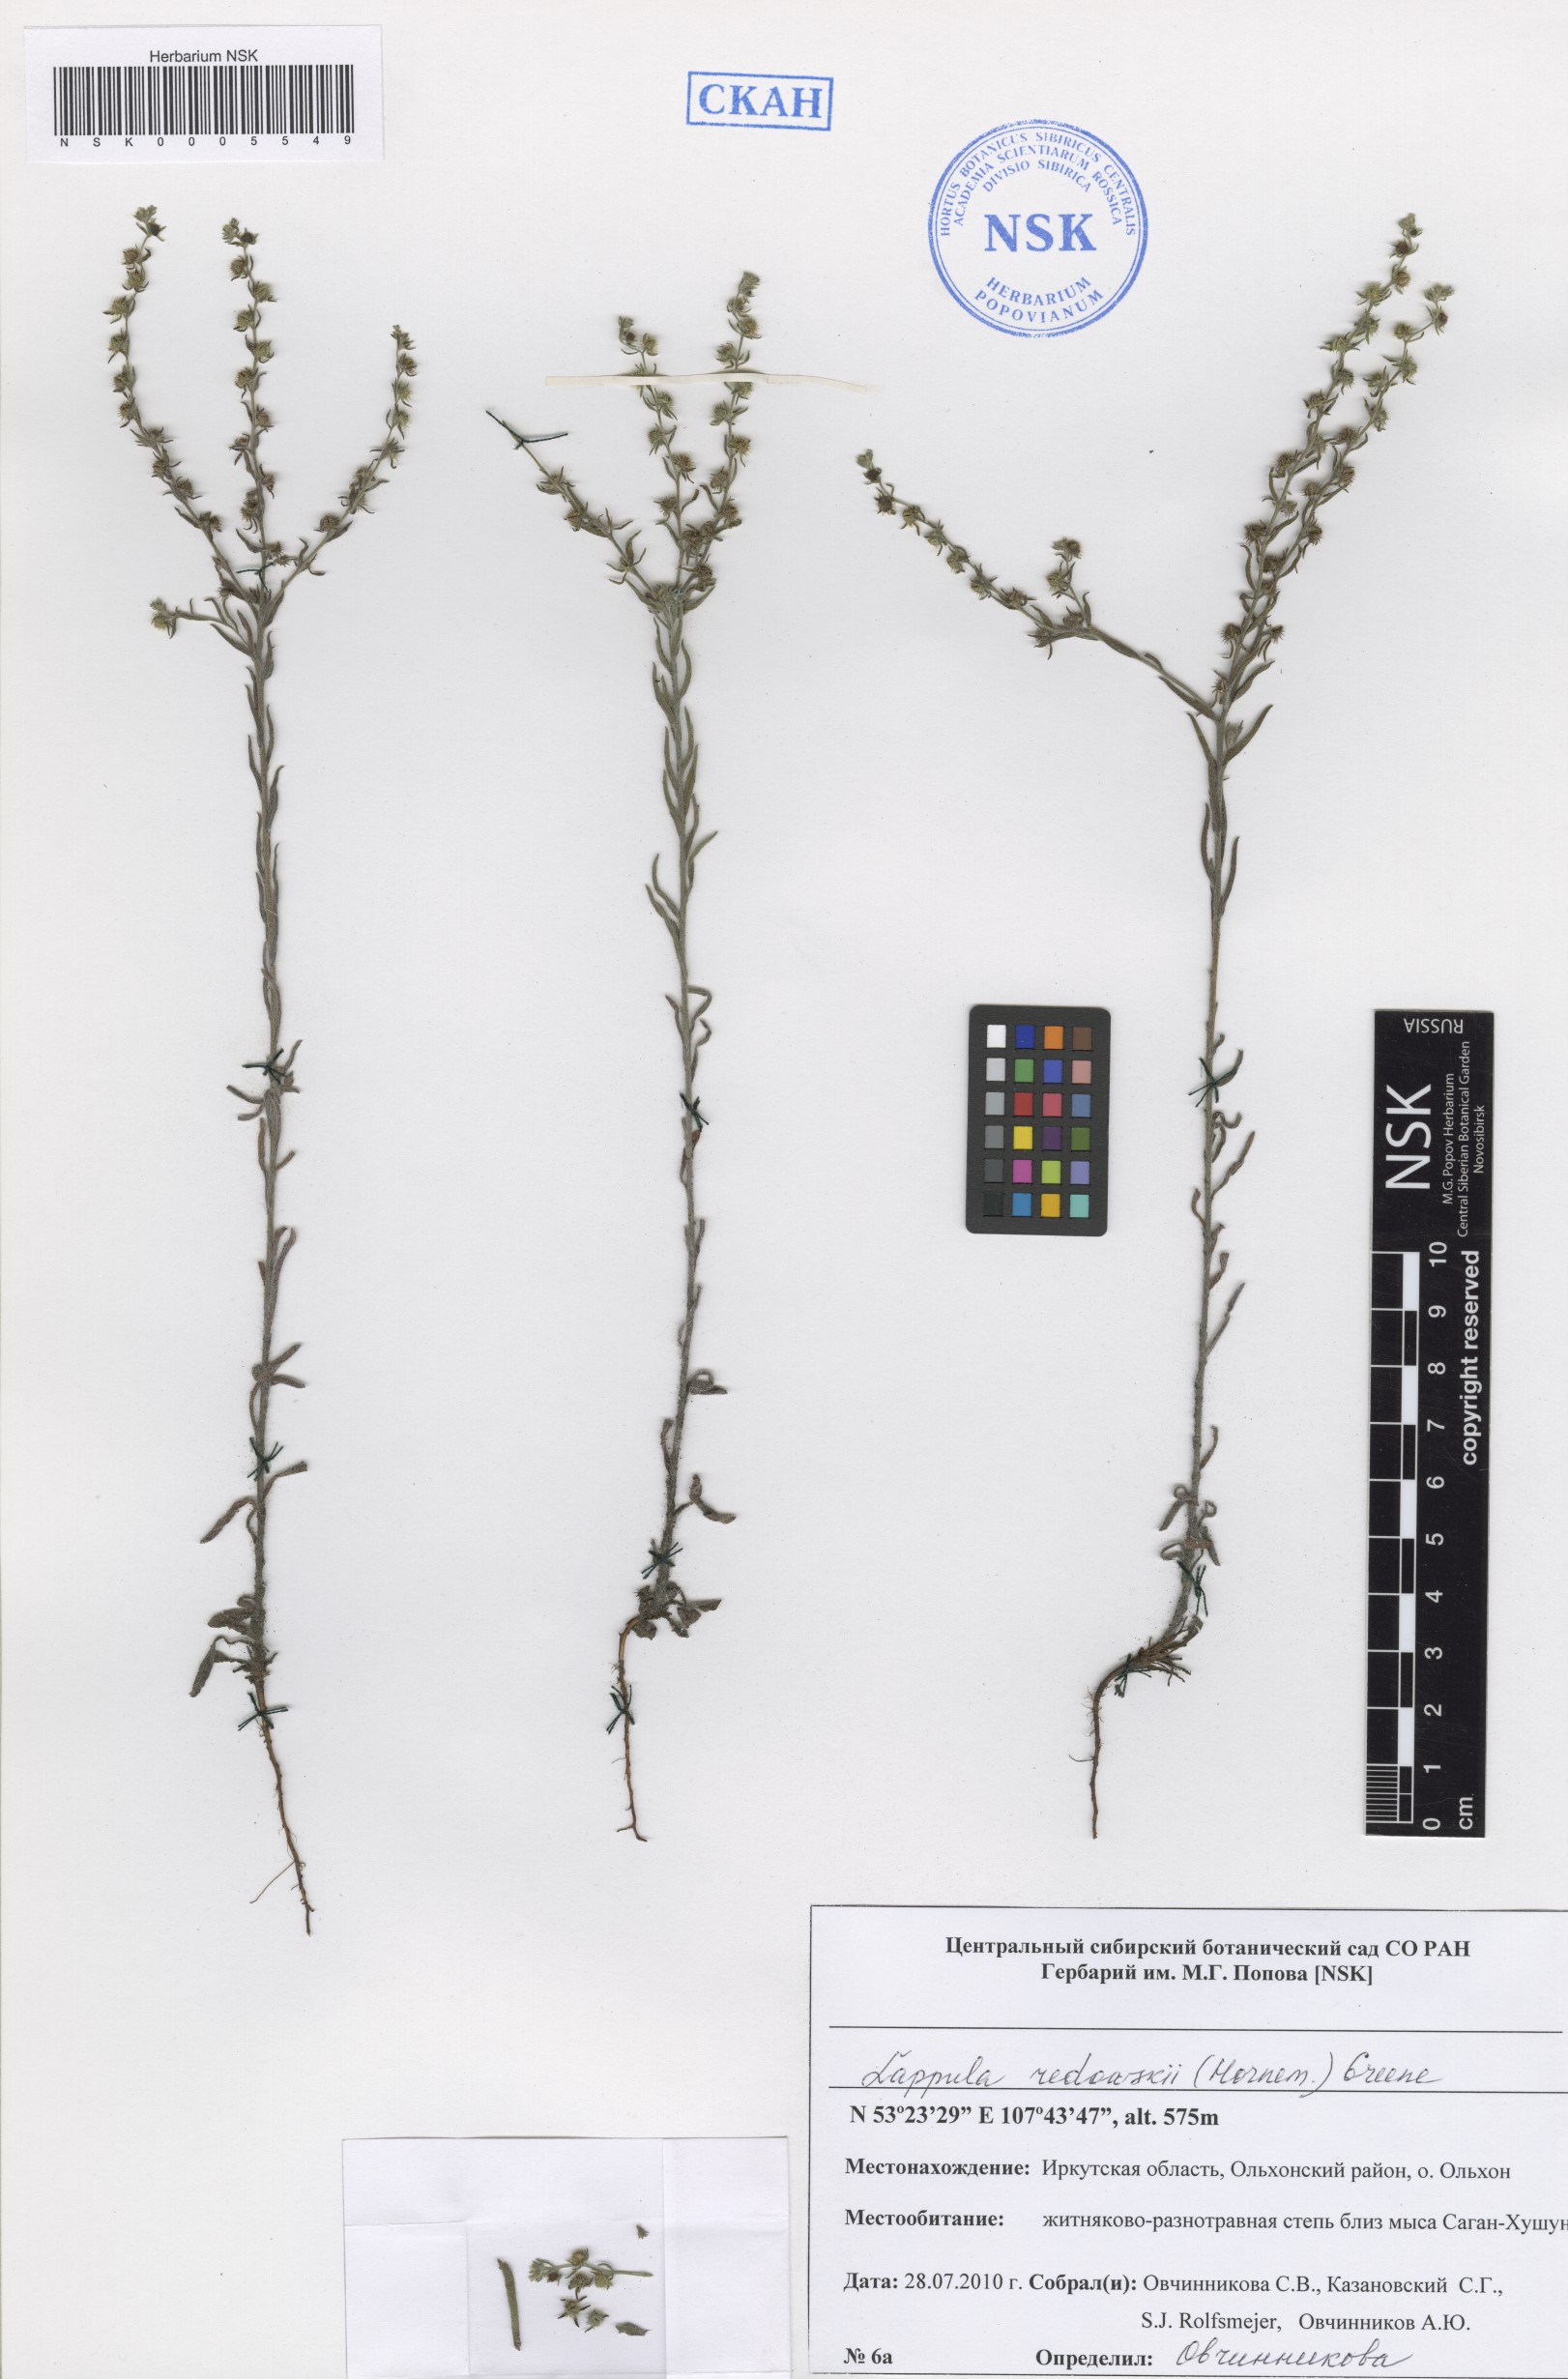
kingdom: Plantae
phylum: Tracheophyta
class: Magnoliopsida
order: Boraginales
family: Boraginaceae
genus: Lappula
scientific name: Lappula redowskii
